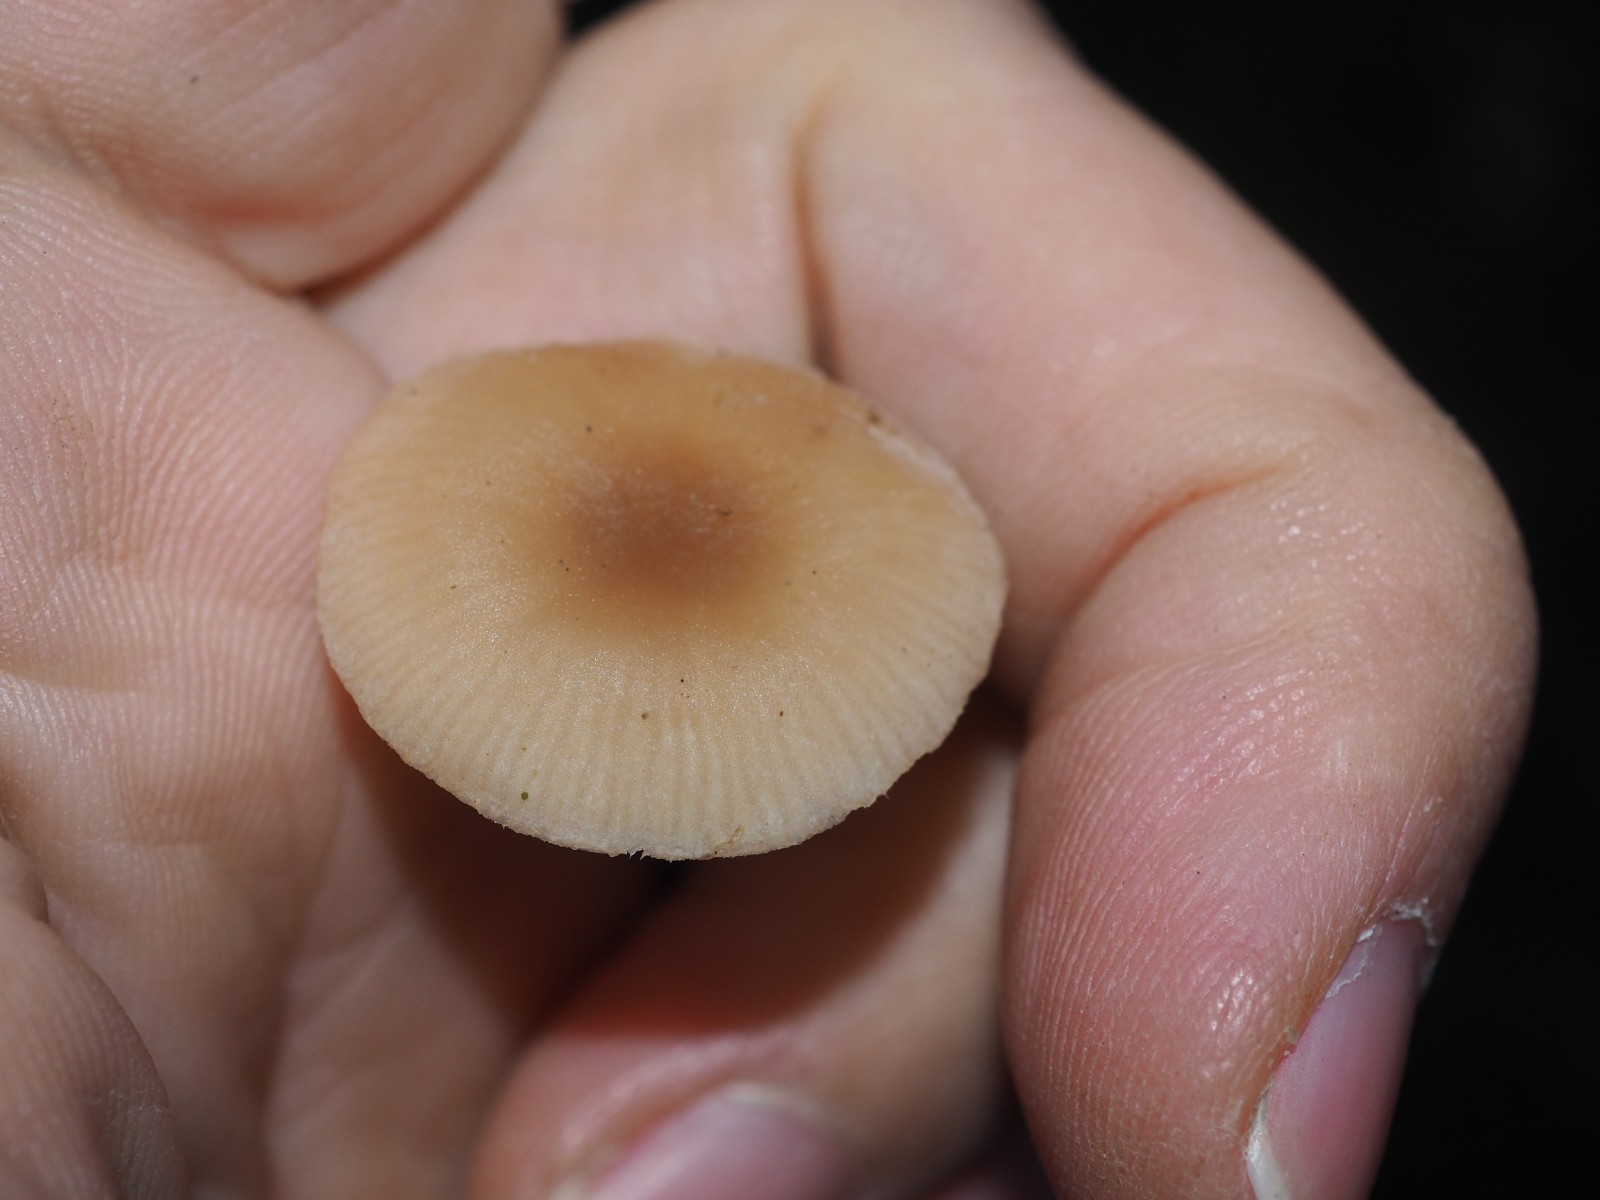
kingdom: Fungi
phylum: Basidiomycota
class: Agaricomycetes
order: Agaricales
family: Tricholomataceae
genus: Clitocybe
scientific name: Clitocybe fragrans
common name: vellugtende tragthat
